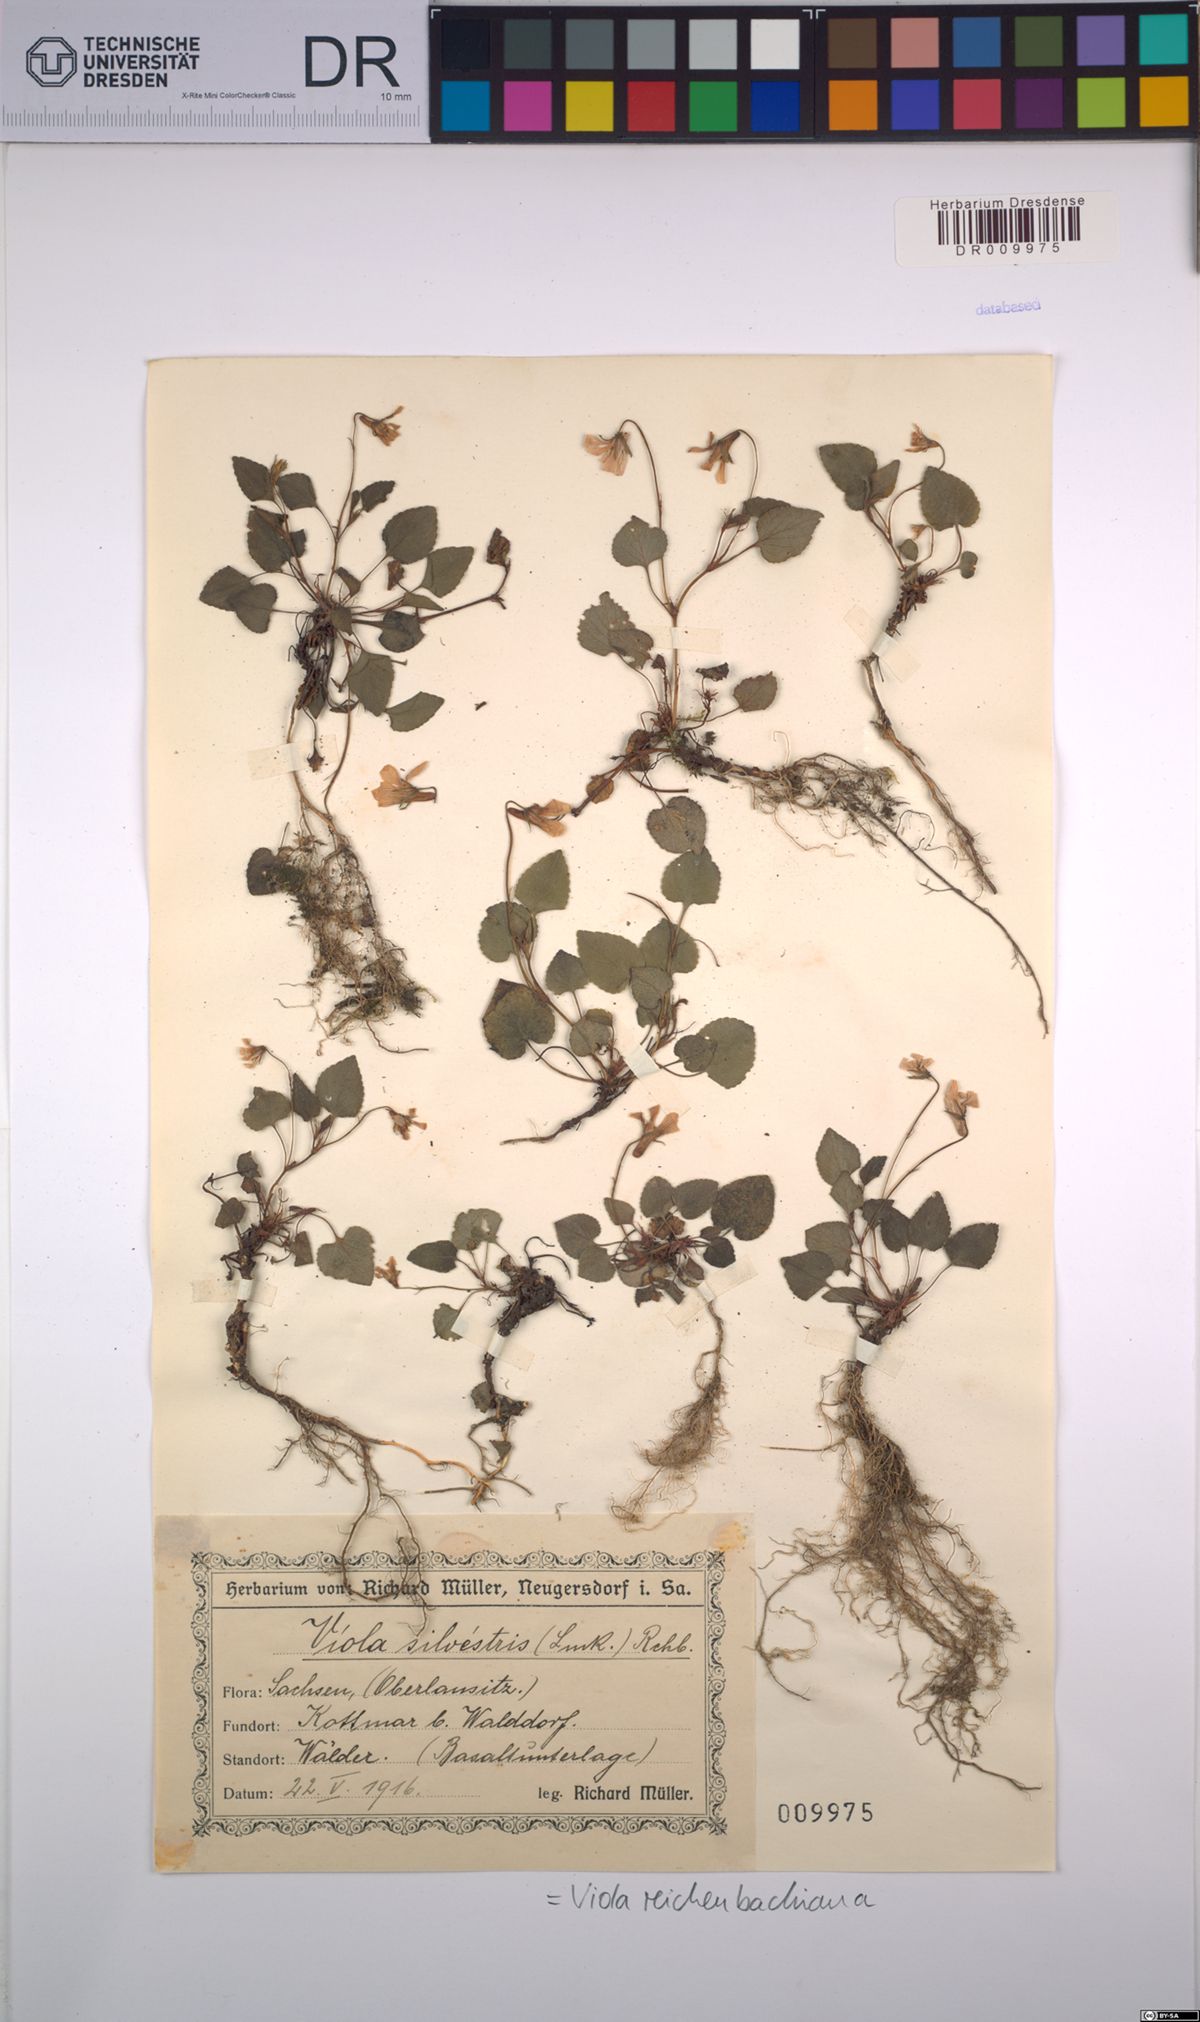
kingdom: Plantae
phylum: Tracheophyta
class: Magnoliopsida
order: Malpighiales
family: Violaceae
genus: Viola
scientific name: Viola reichenbachiana
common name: Early dog-violet
